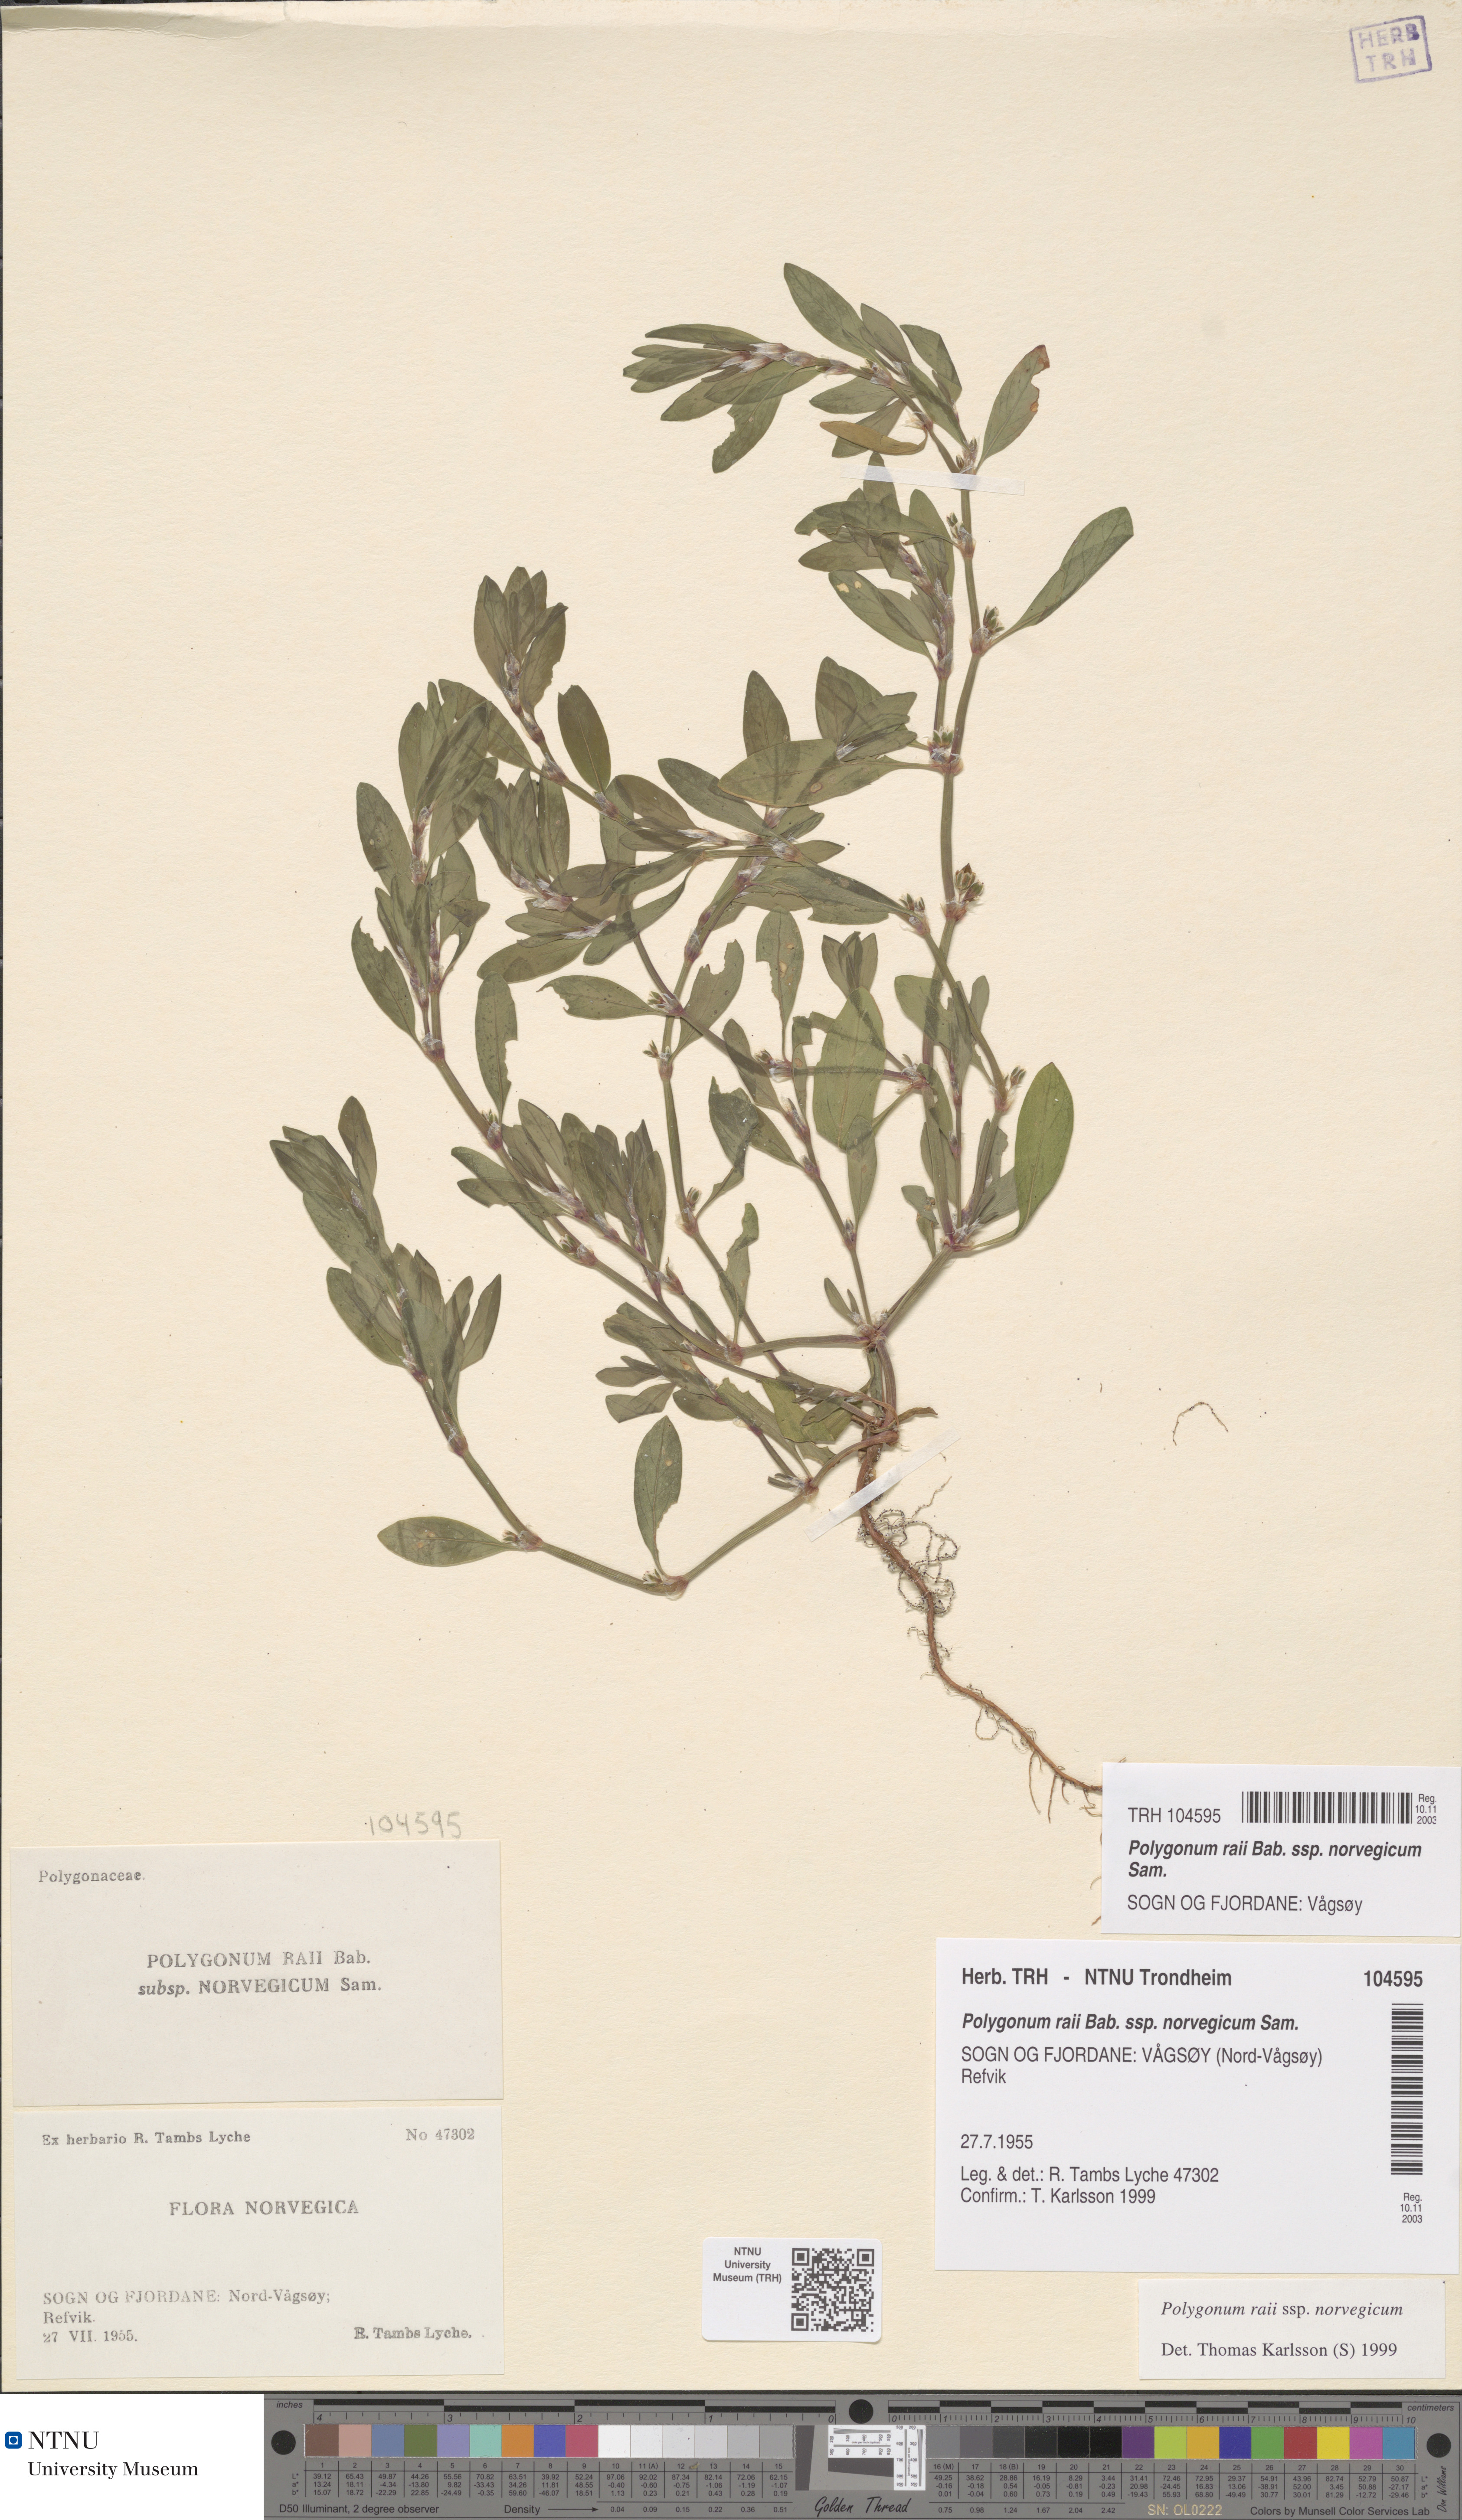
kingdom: Plantae
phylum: Tracheophyta
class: Magnoliopsida
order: Caryophyllales
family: Polygonaceae
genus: Polygonum
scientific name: Polygonum norvegicum
